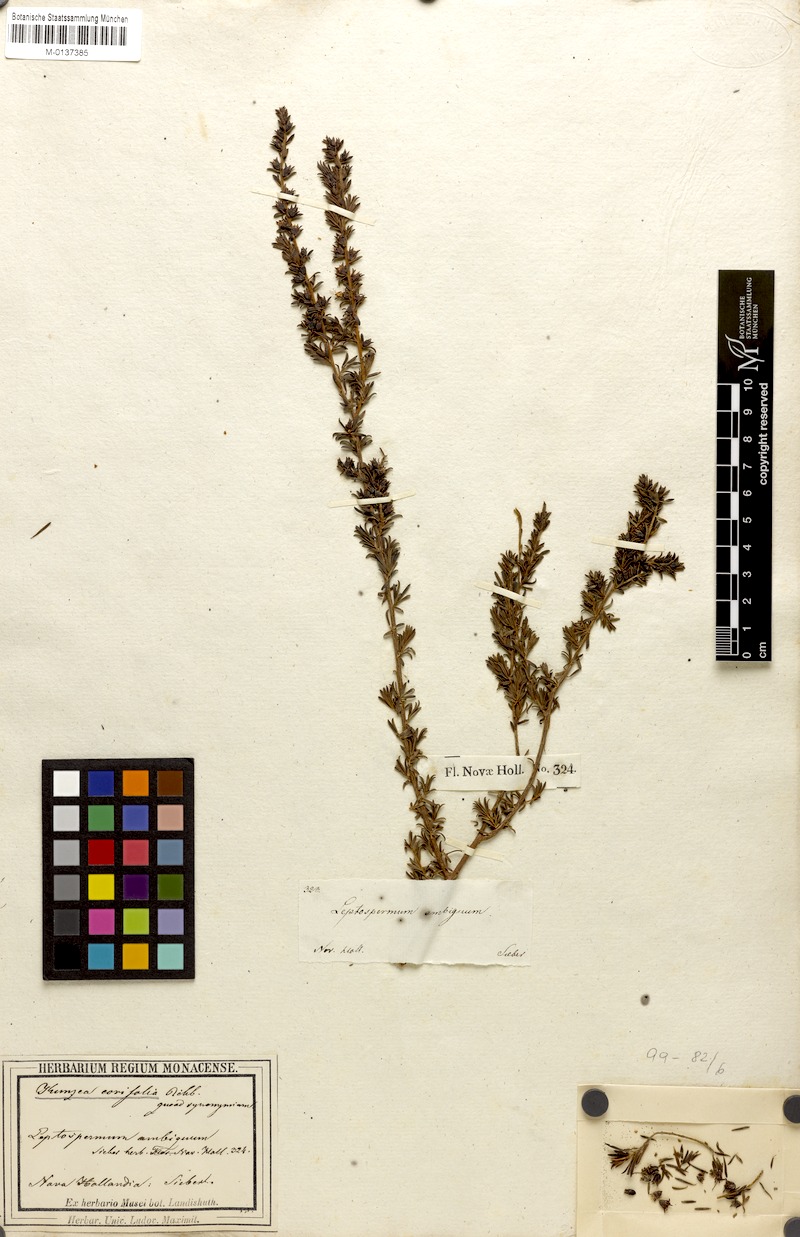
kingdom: Plantae
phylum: Tracheophyta
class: Magnoliopsida
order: Myrtales
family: Myrtaceae
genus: Kunzea
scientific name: Kunzea ericifolia
